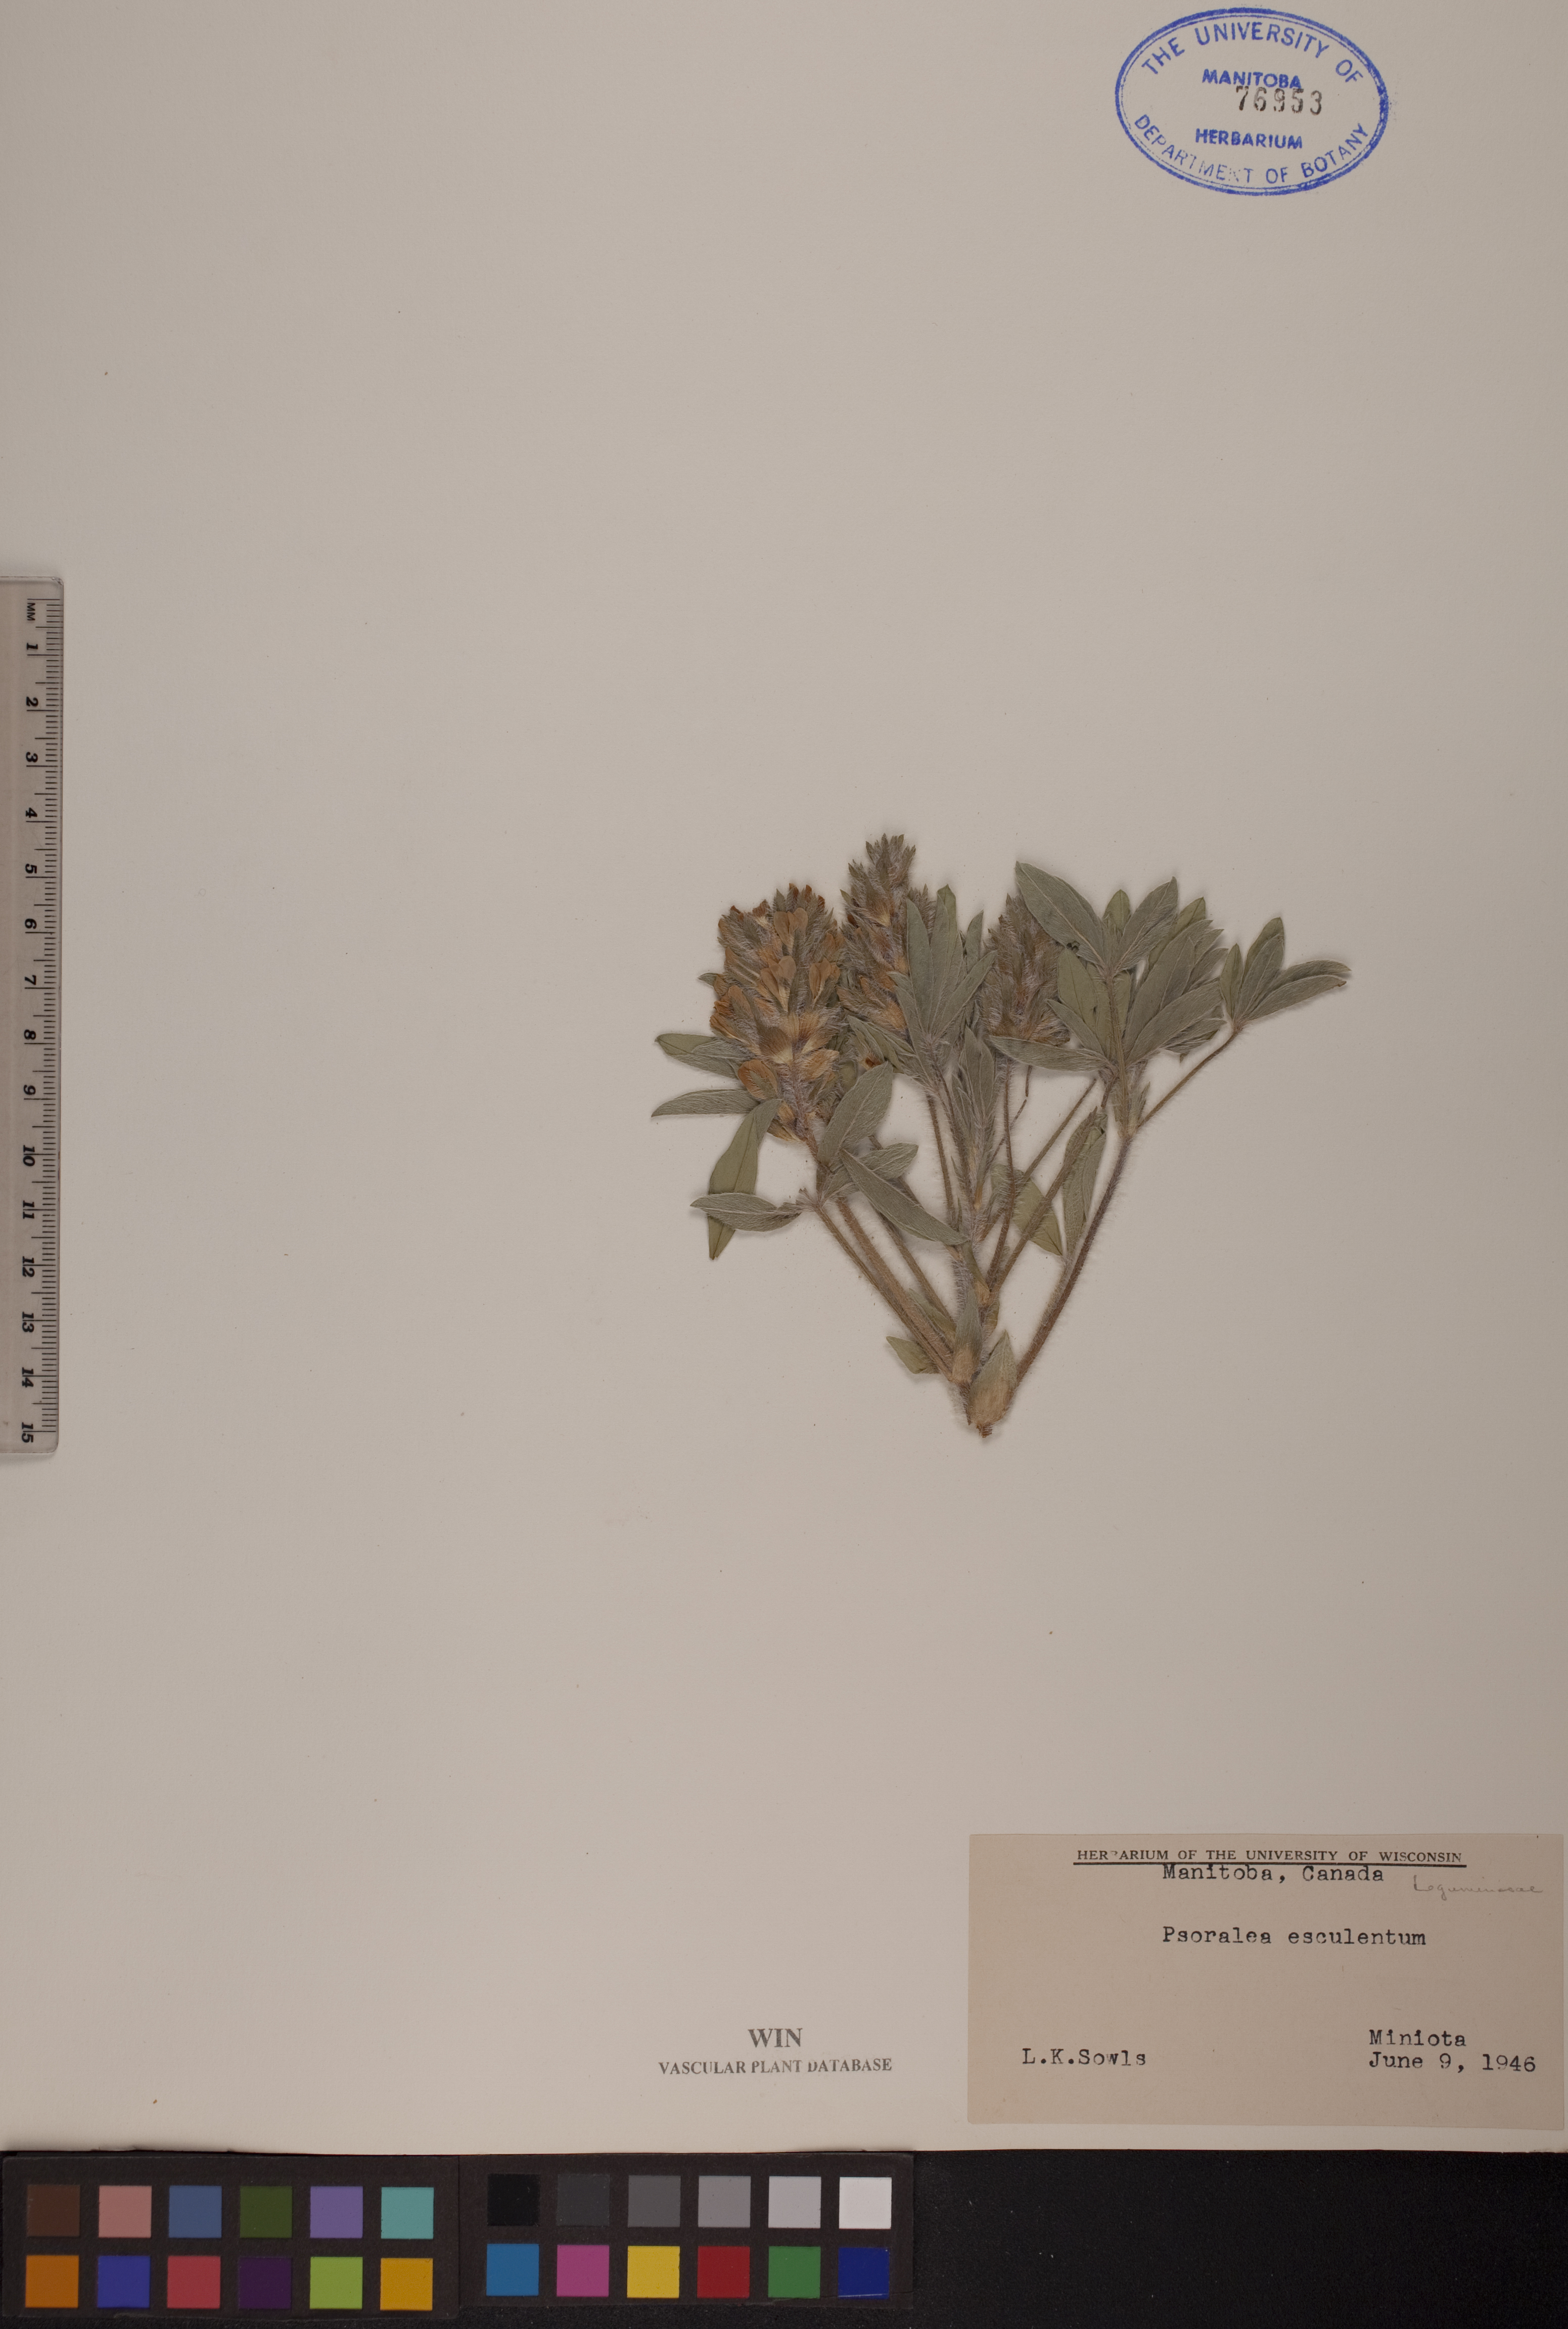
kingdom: Plantae
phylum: Tracheophyta
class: Magnoliopsida
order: Fabales
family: Fabaceae
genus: Pediomelum
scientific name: Pediomelum humile
